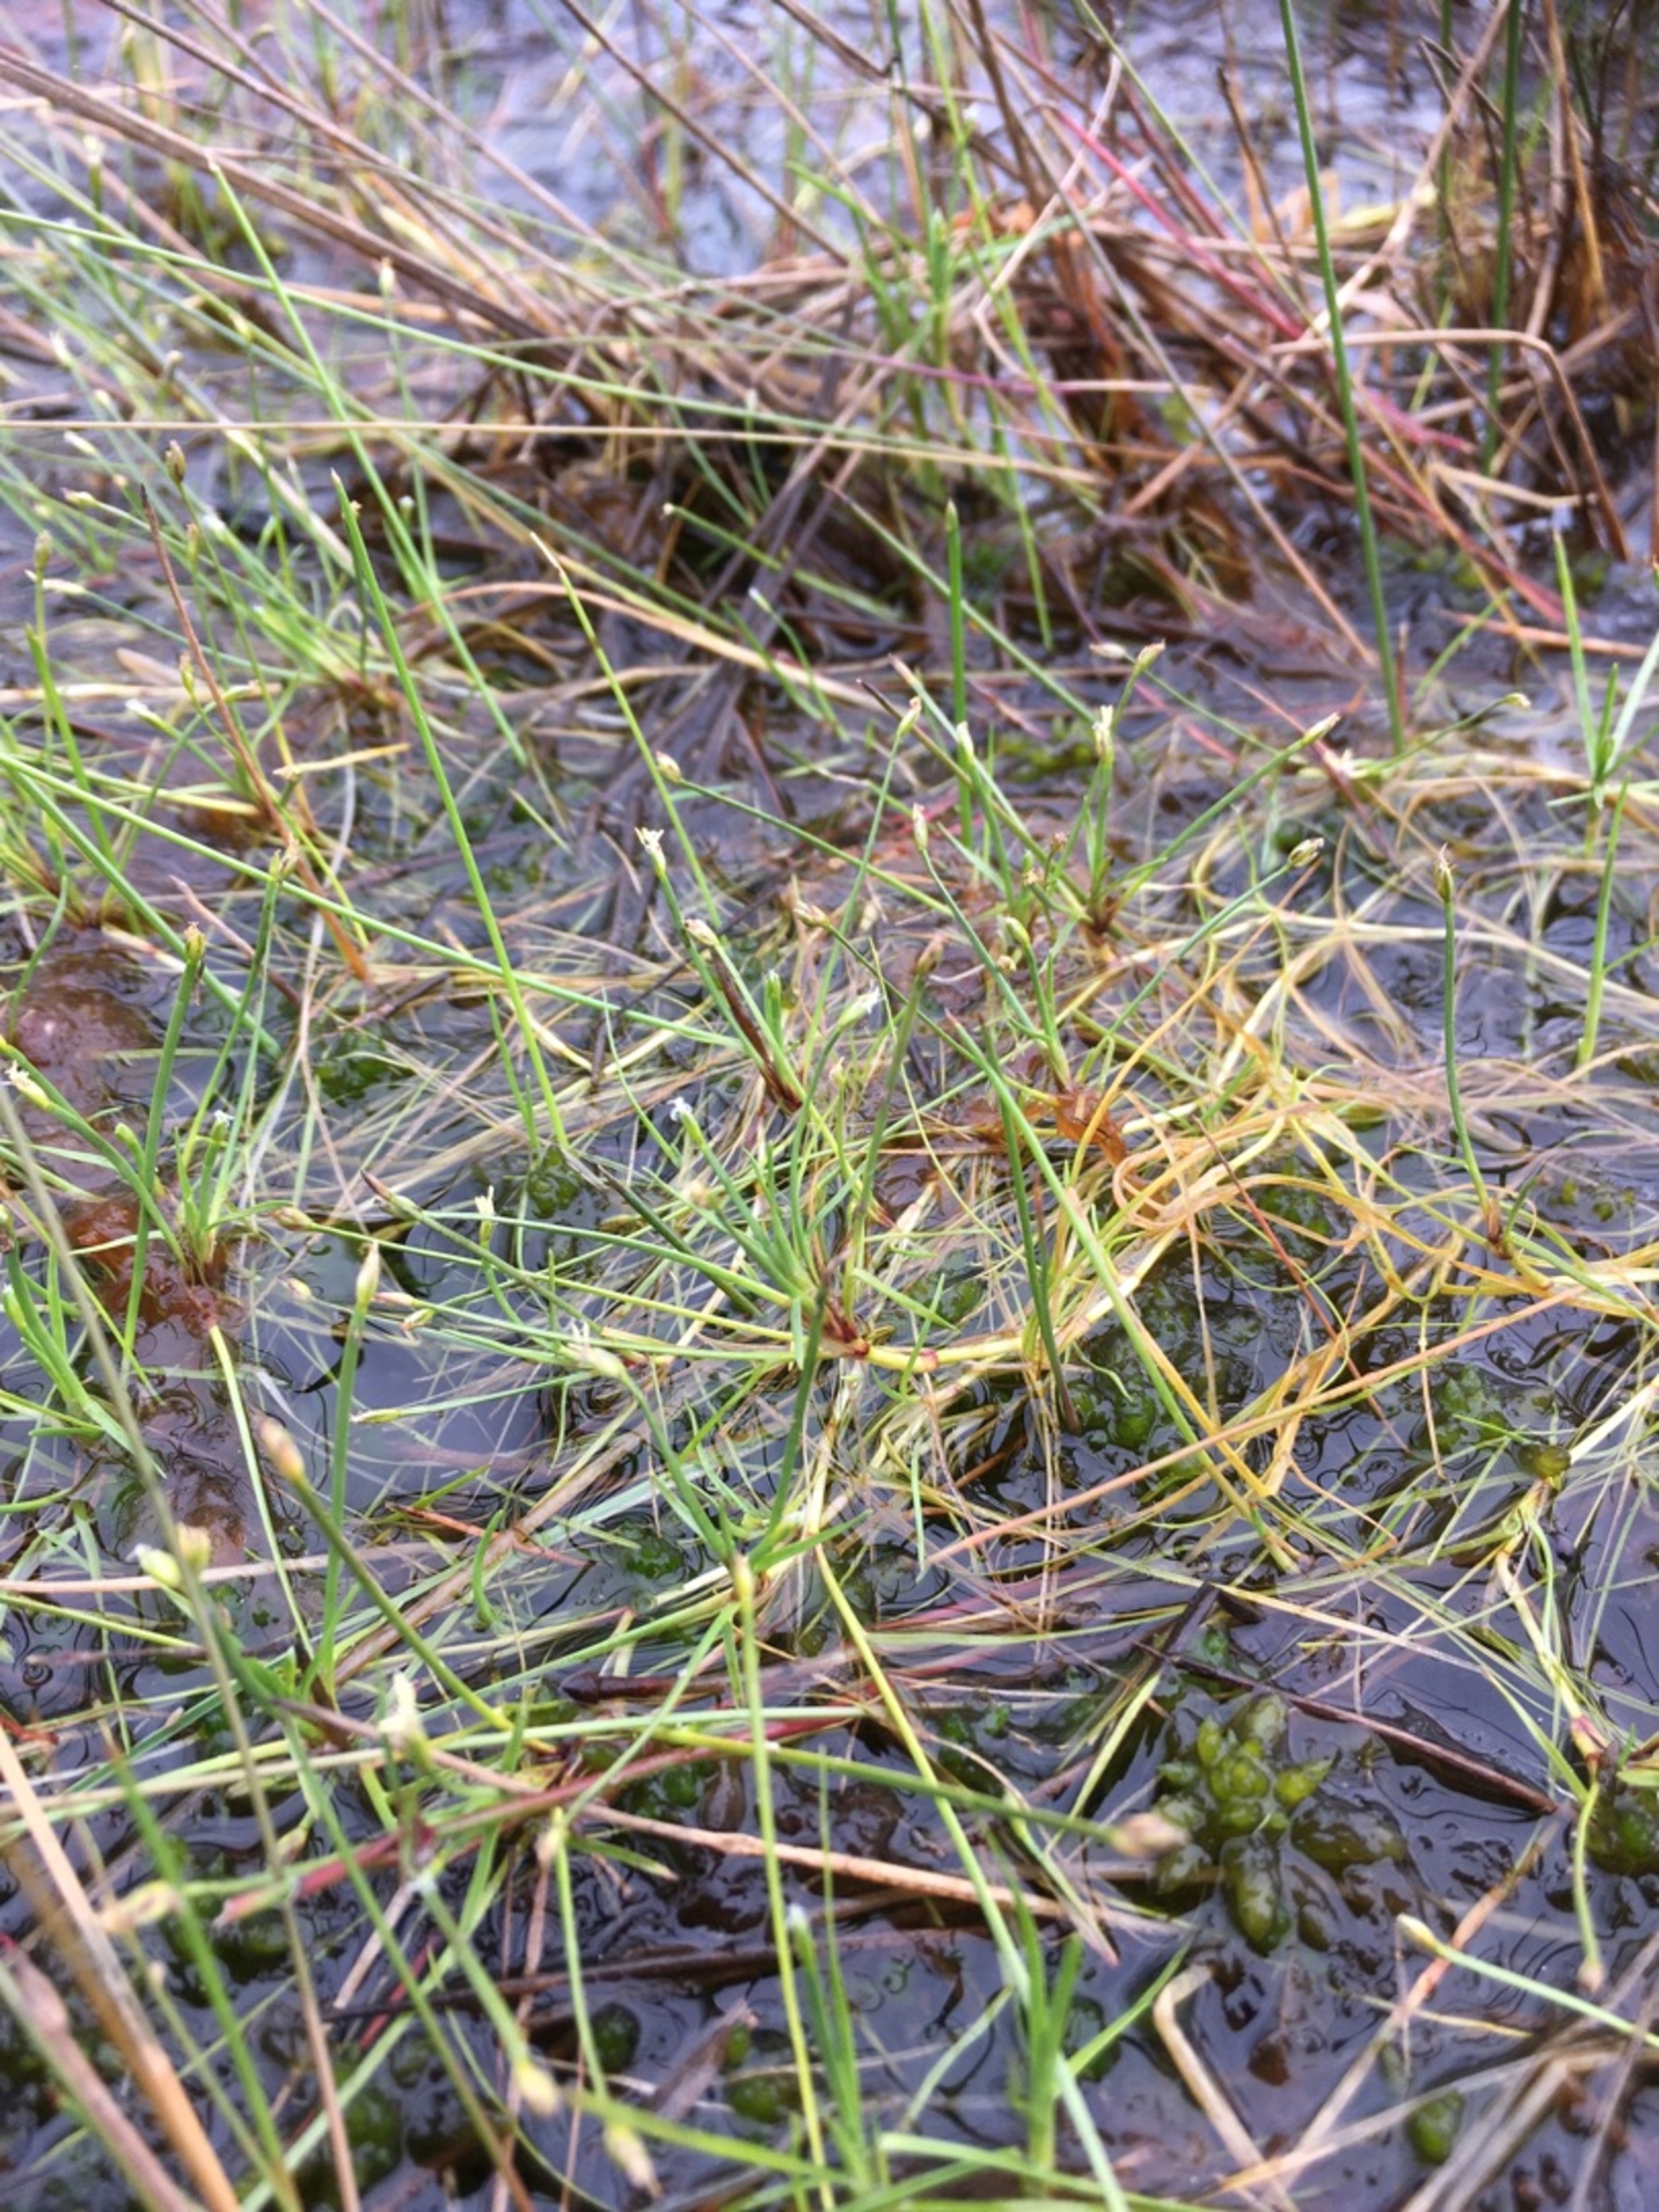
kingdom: Plantae
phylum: Tracheophyta
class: Liliopsida
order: Poales
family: Cyperaceae
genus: Isolepis
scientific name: Isolepis fluitans
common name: Flydende kogleaks
